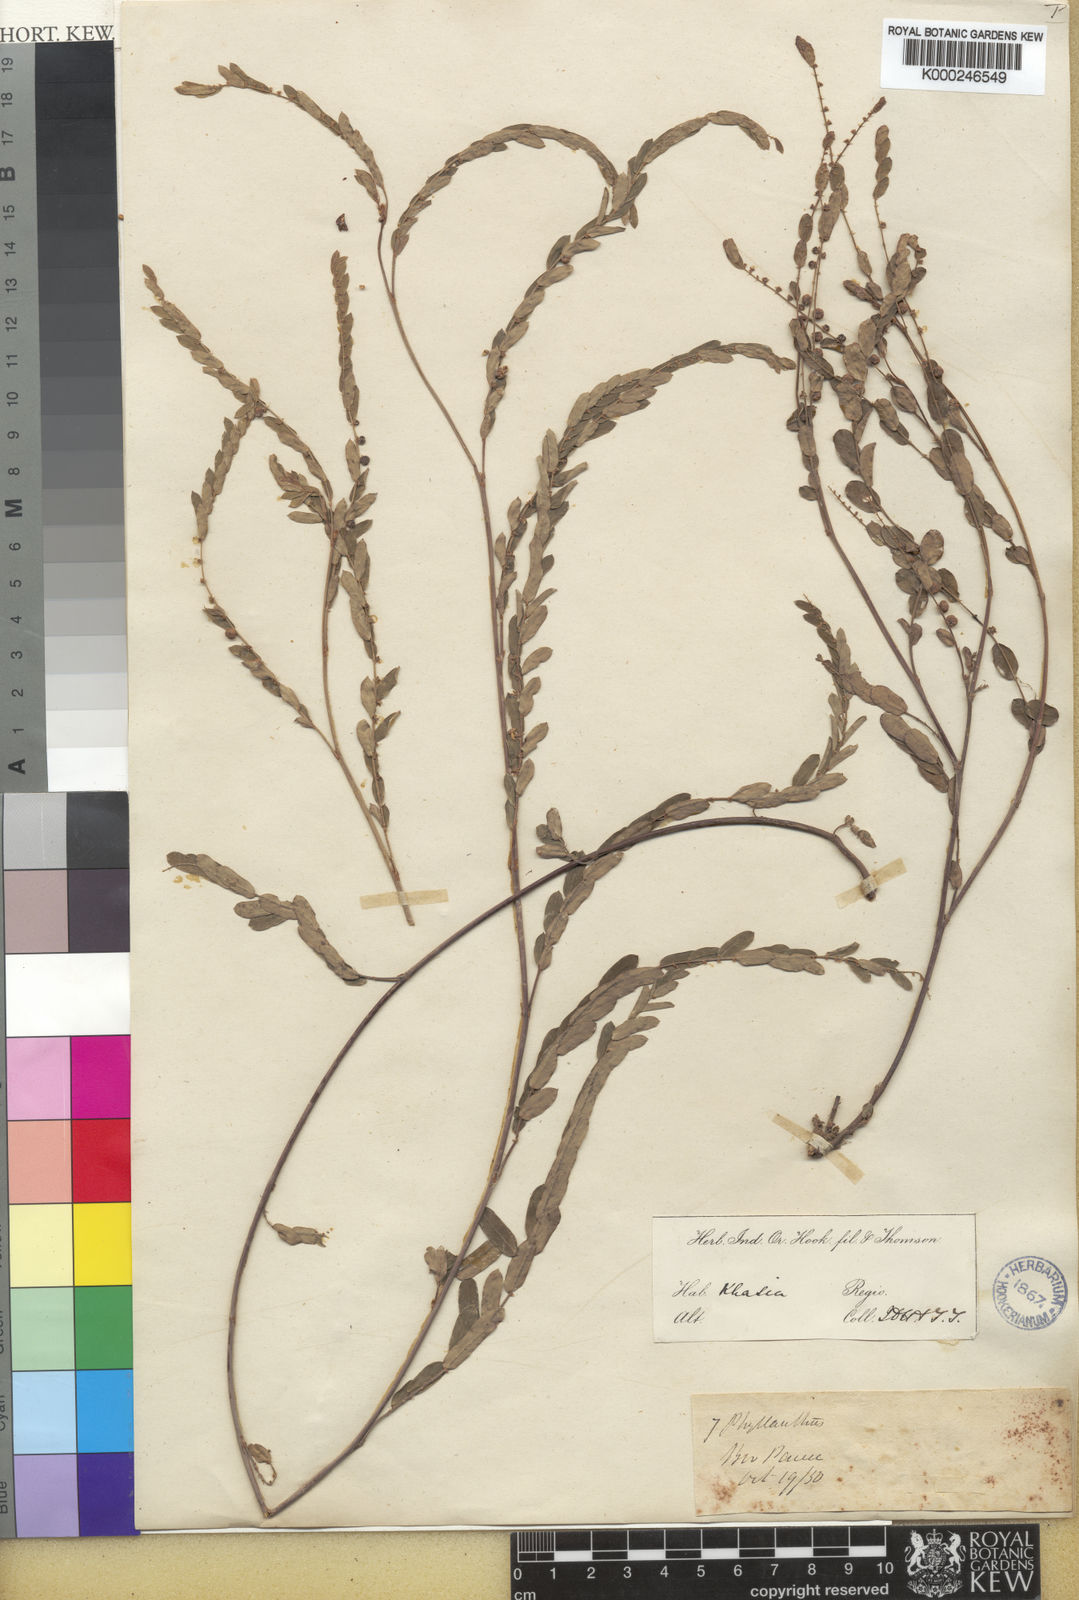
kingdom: Plantae
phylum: Tracheophyta
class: Magnoliopsida
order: Malpighiales
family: Phyllanthaceae
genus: Phyllanthus
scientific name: Phyllanthus urinaria
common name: Chamber bitter
